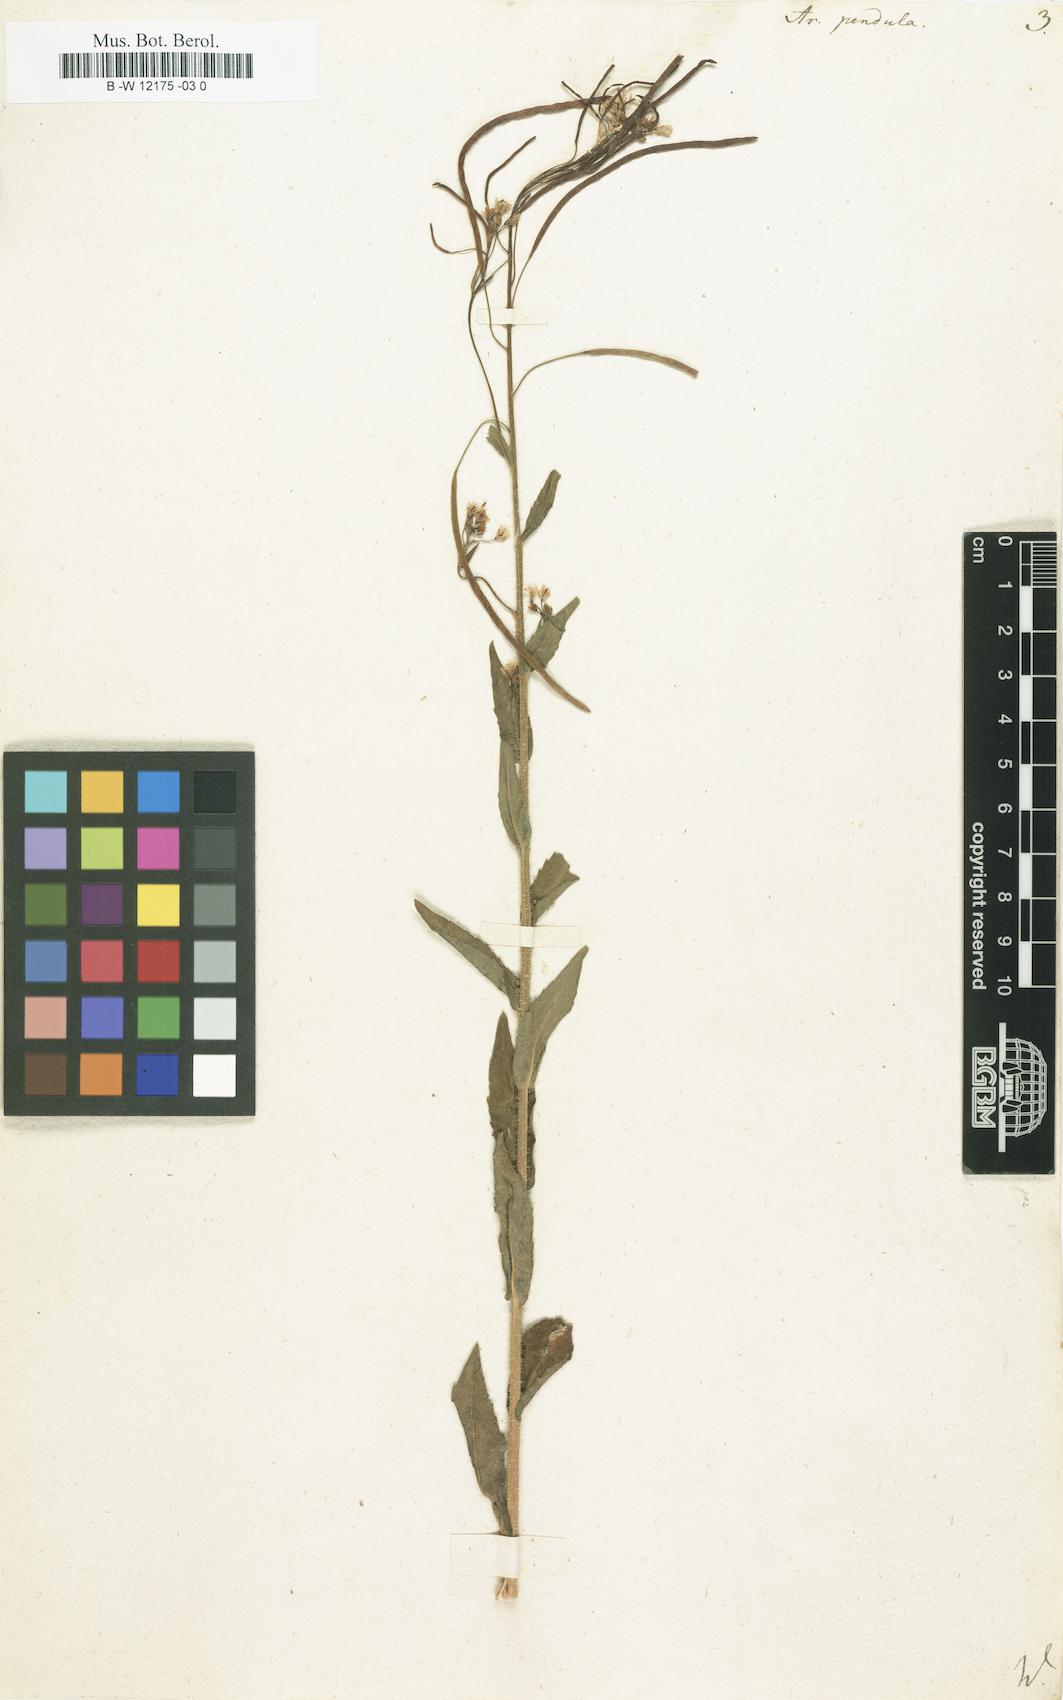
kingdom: Plantae
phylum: Tracheophyta
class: Magnoliopsida
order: Brassicales
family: Brassicaceae
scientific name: Brassicaceae
